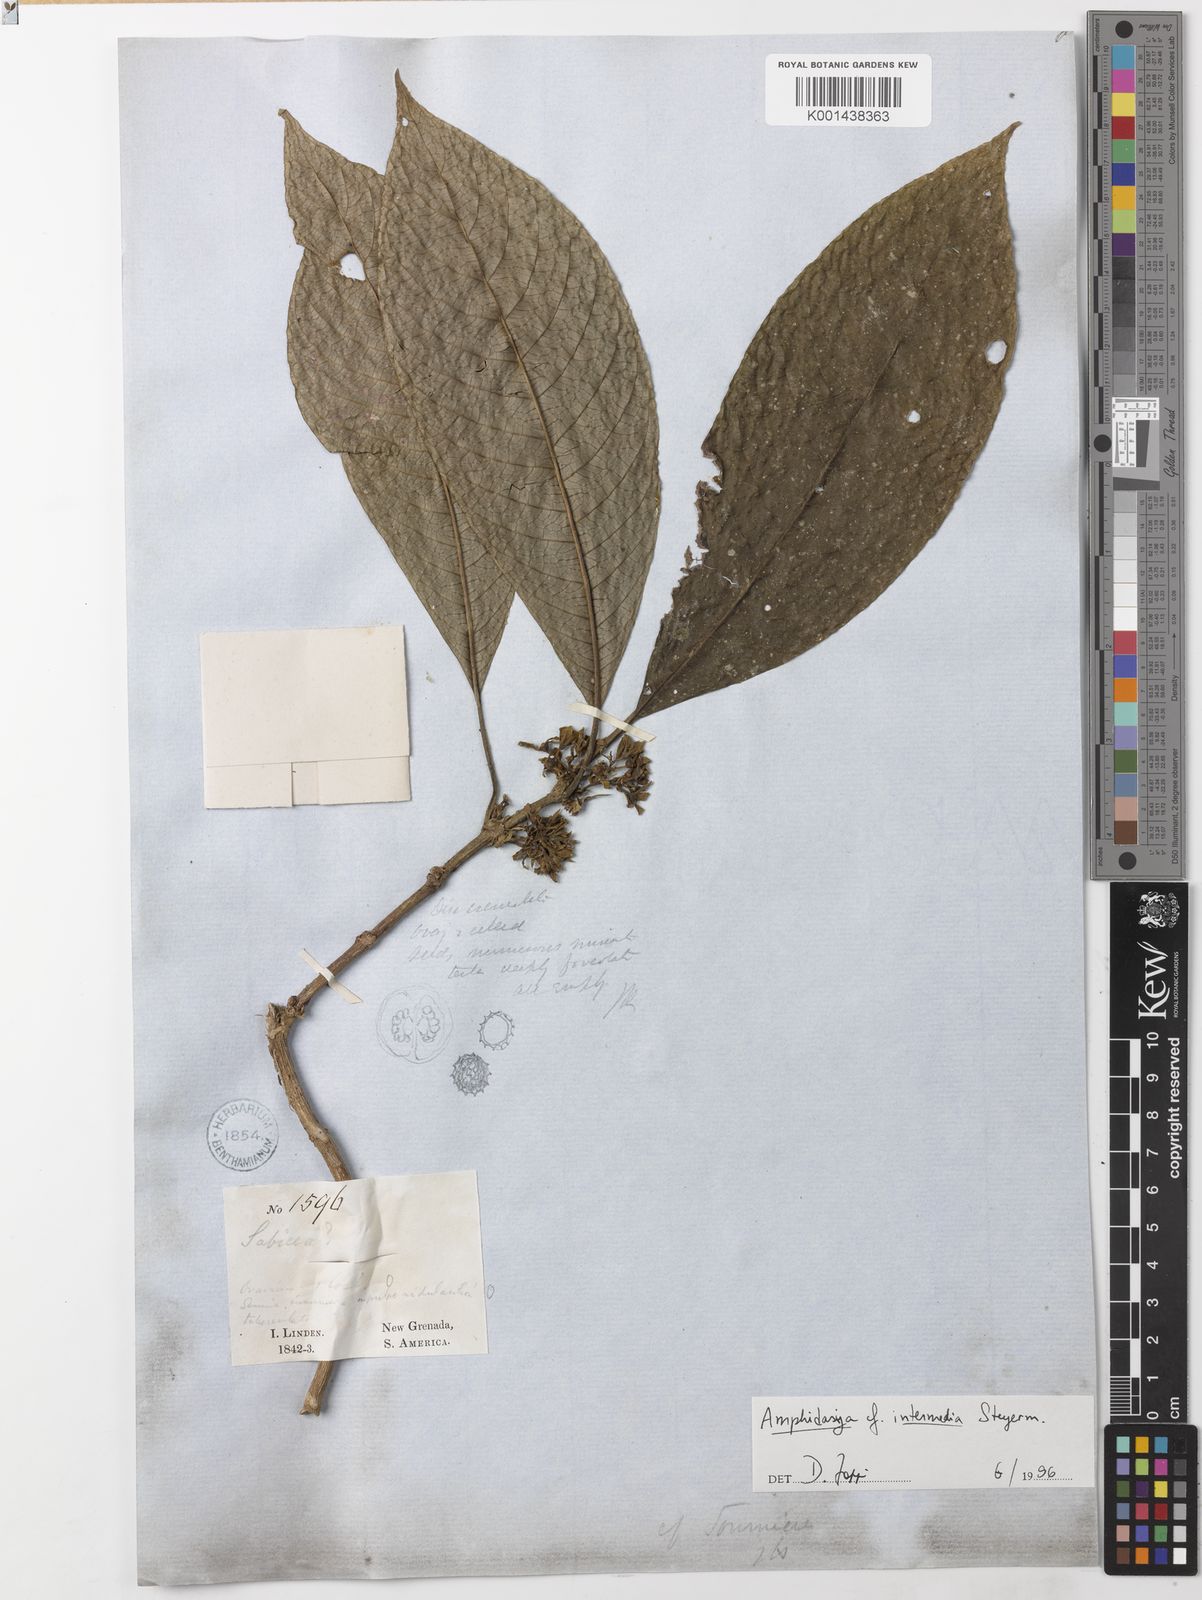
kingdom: Plantae
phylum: Tracheophyta
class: Magnoliopsida
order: Gentianales
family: Rubiaceae
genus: Amphidasya
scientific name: Amphidasya intermedia
